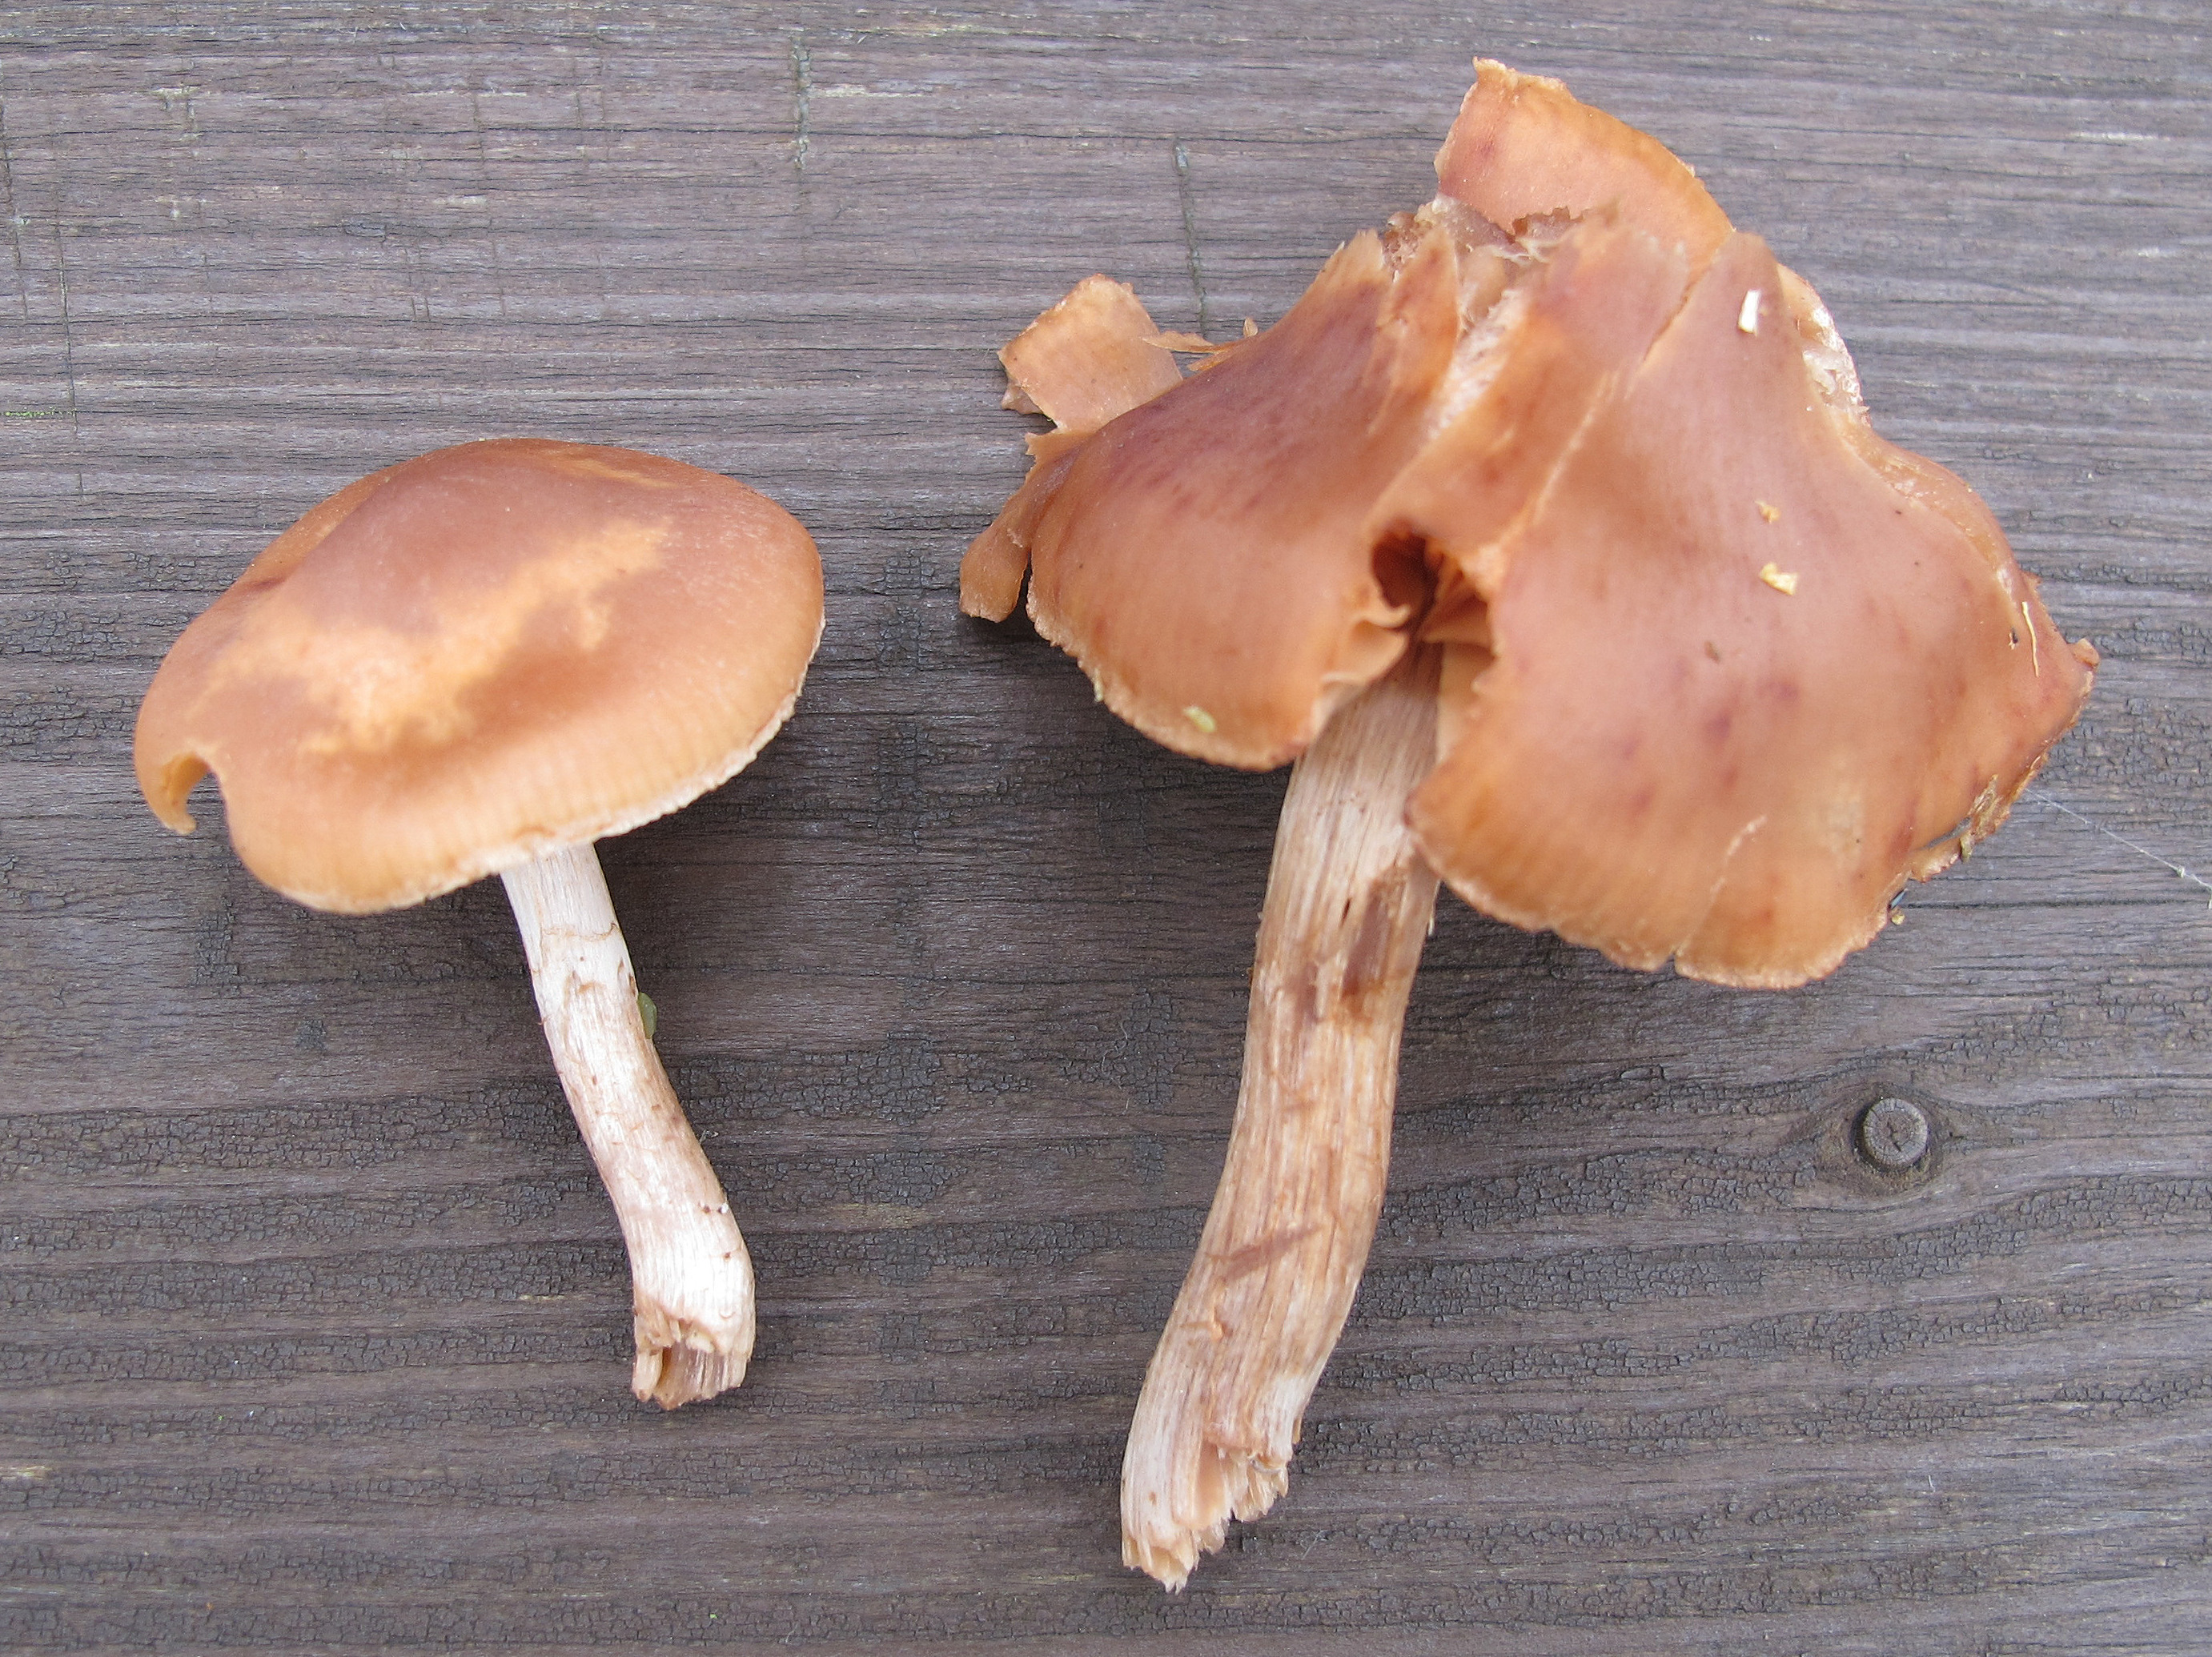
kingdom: Fungi
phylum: Basidiomycota
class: Agaricomycetes
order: Agaricales
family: Cortinariaceae
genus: Cortinarius
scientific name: Cortinarius boreasensis
